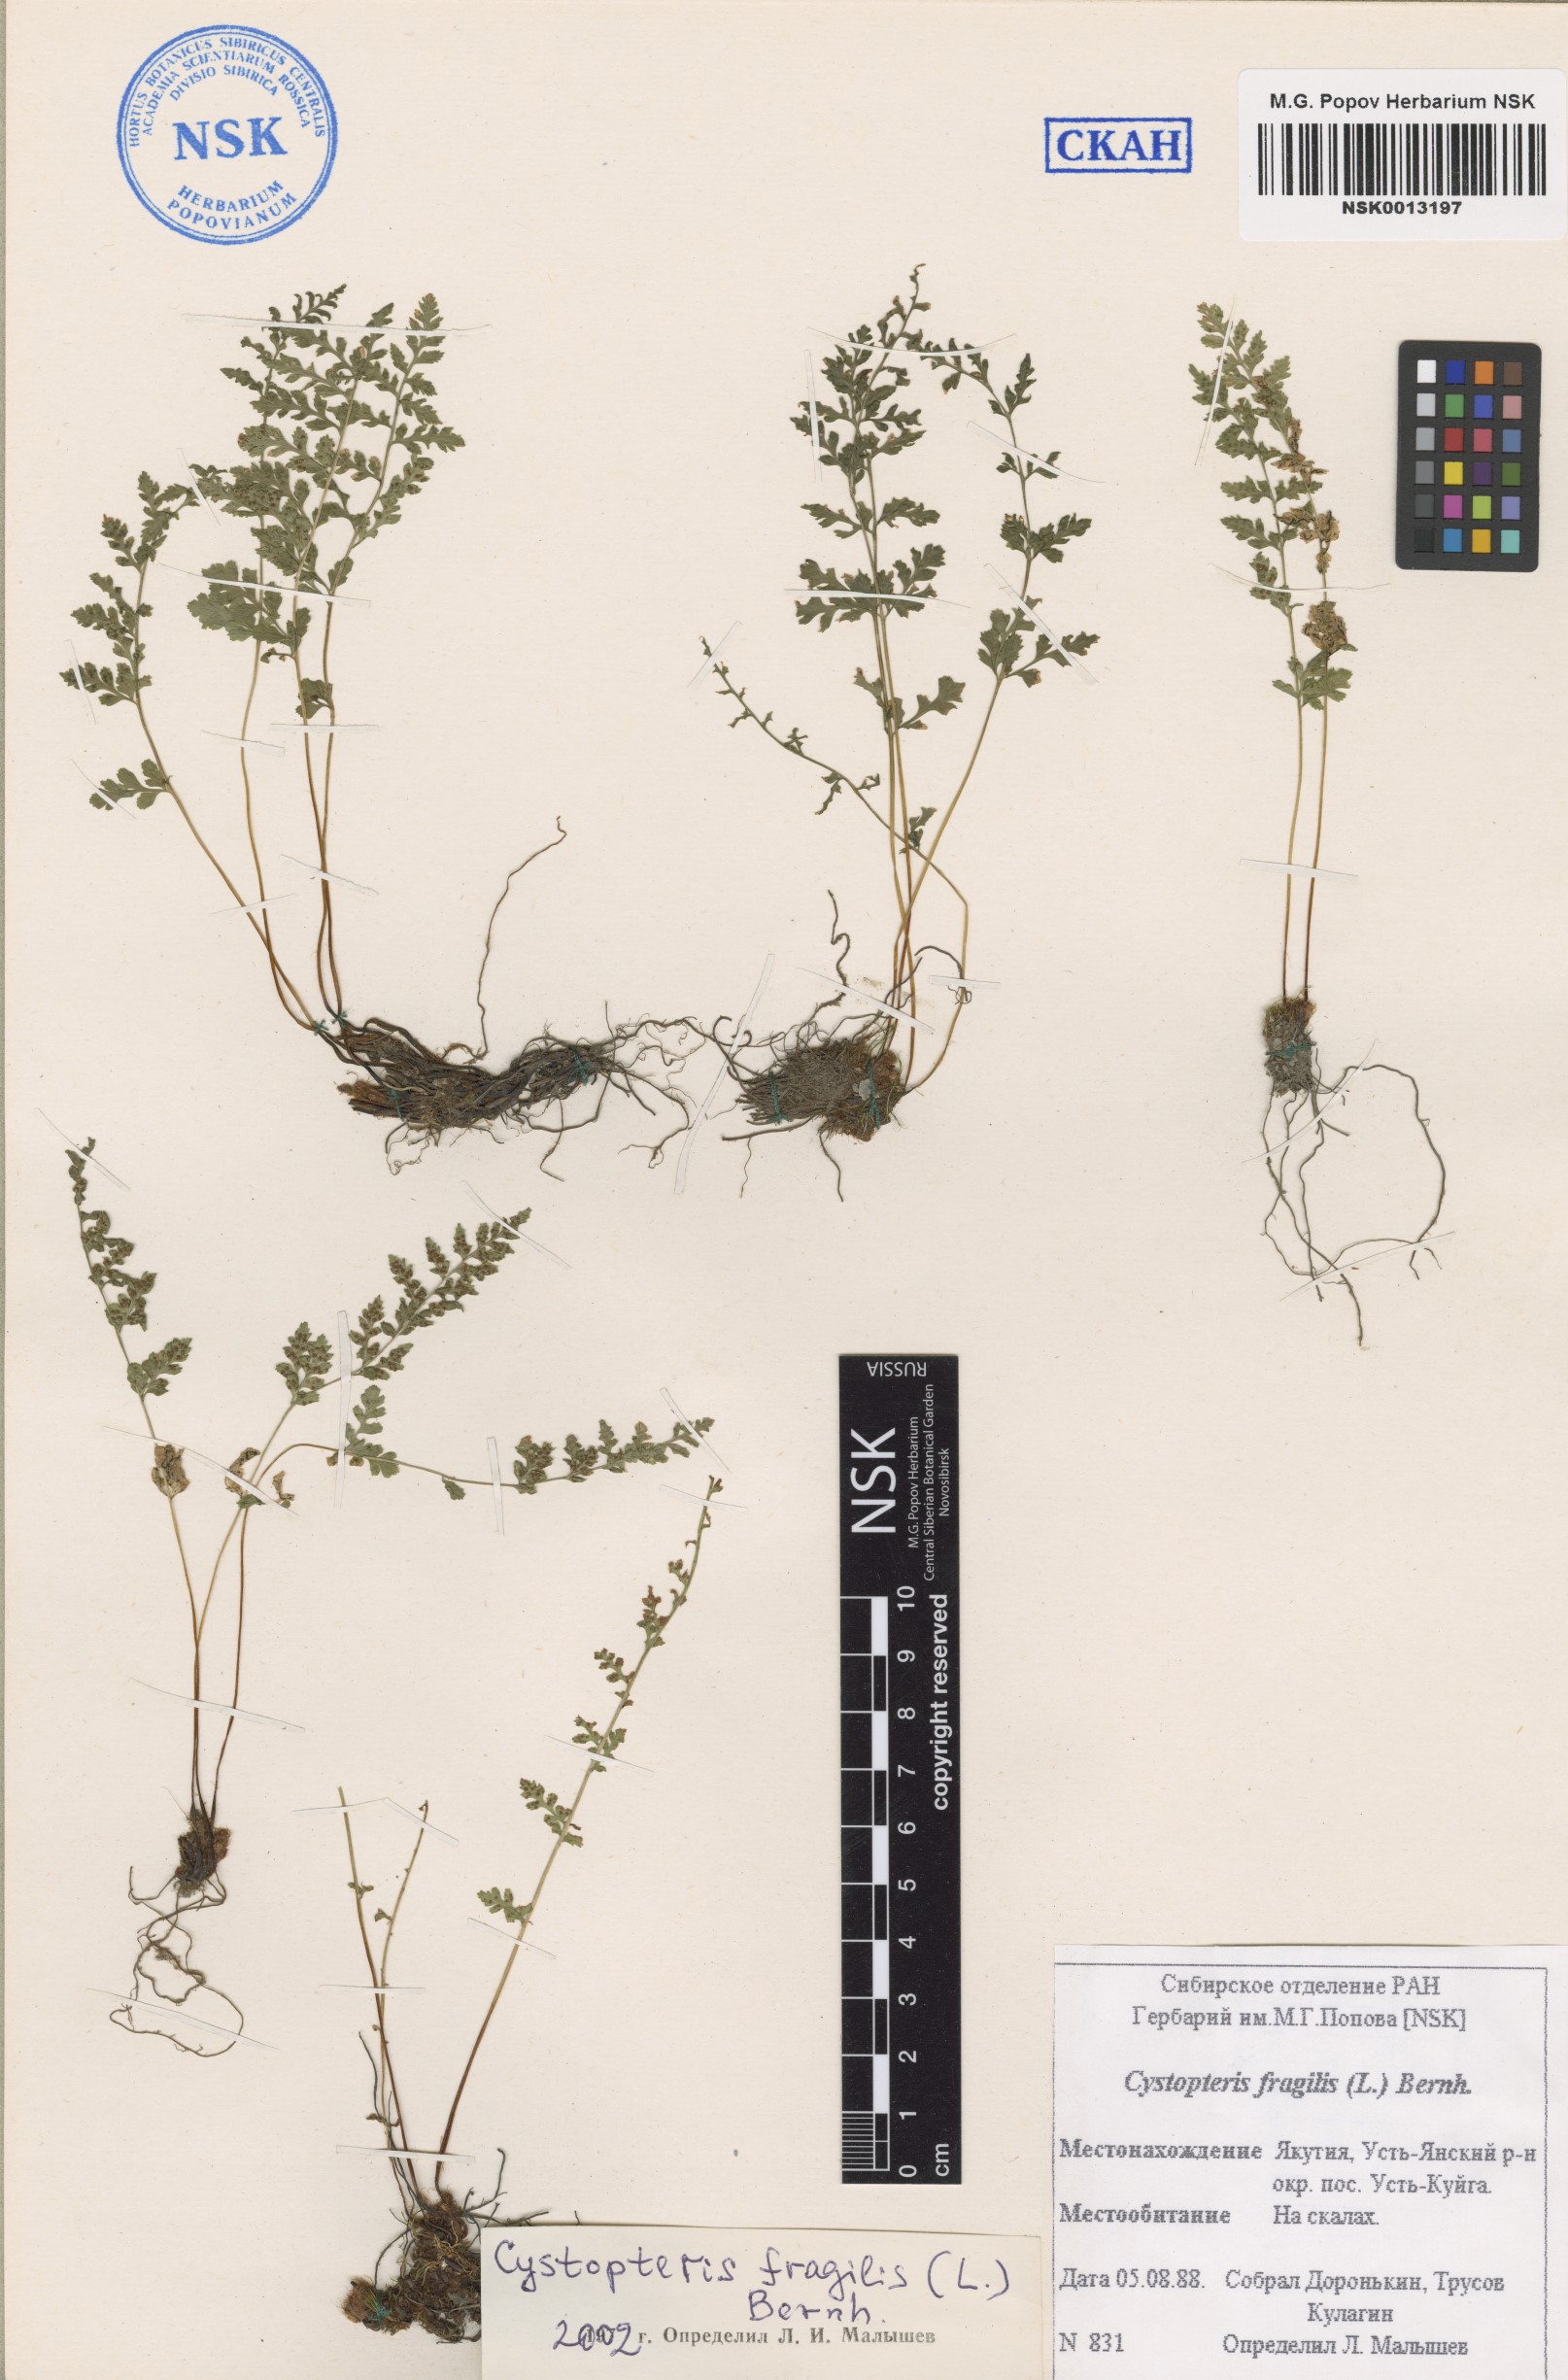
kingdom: Plantae
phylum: Tracheophyta
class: Polypodiopsida
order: Polypodiales
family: Cystopteridaceae
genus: Cystopteris
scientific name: Cystopteris fragilis
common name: Brittle bladder fern
